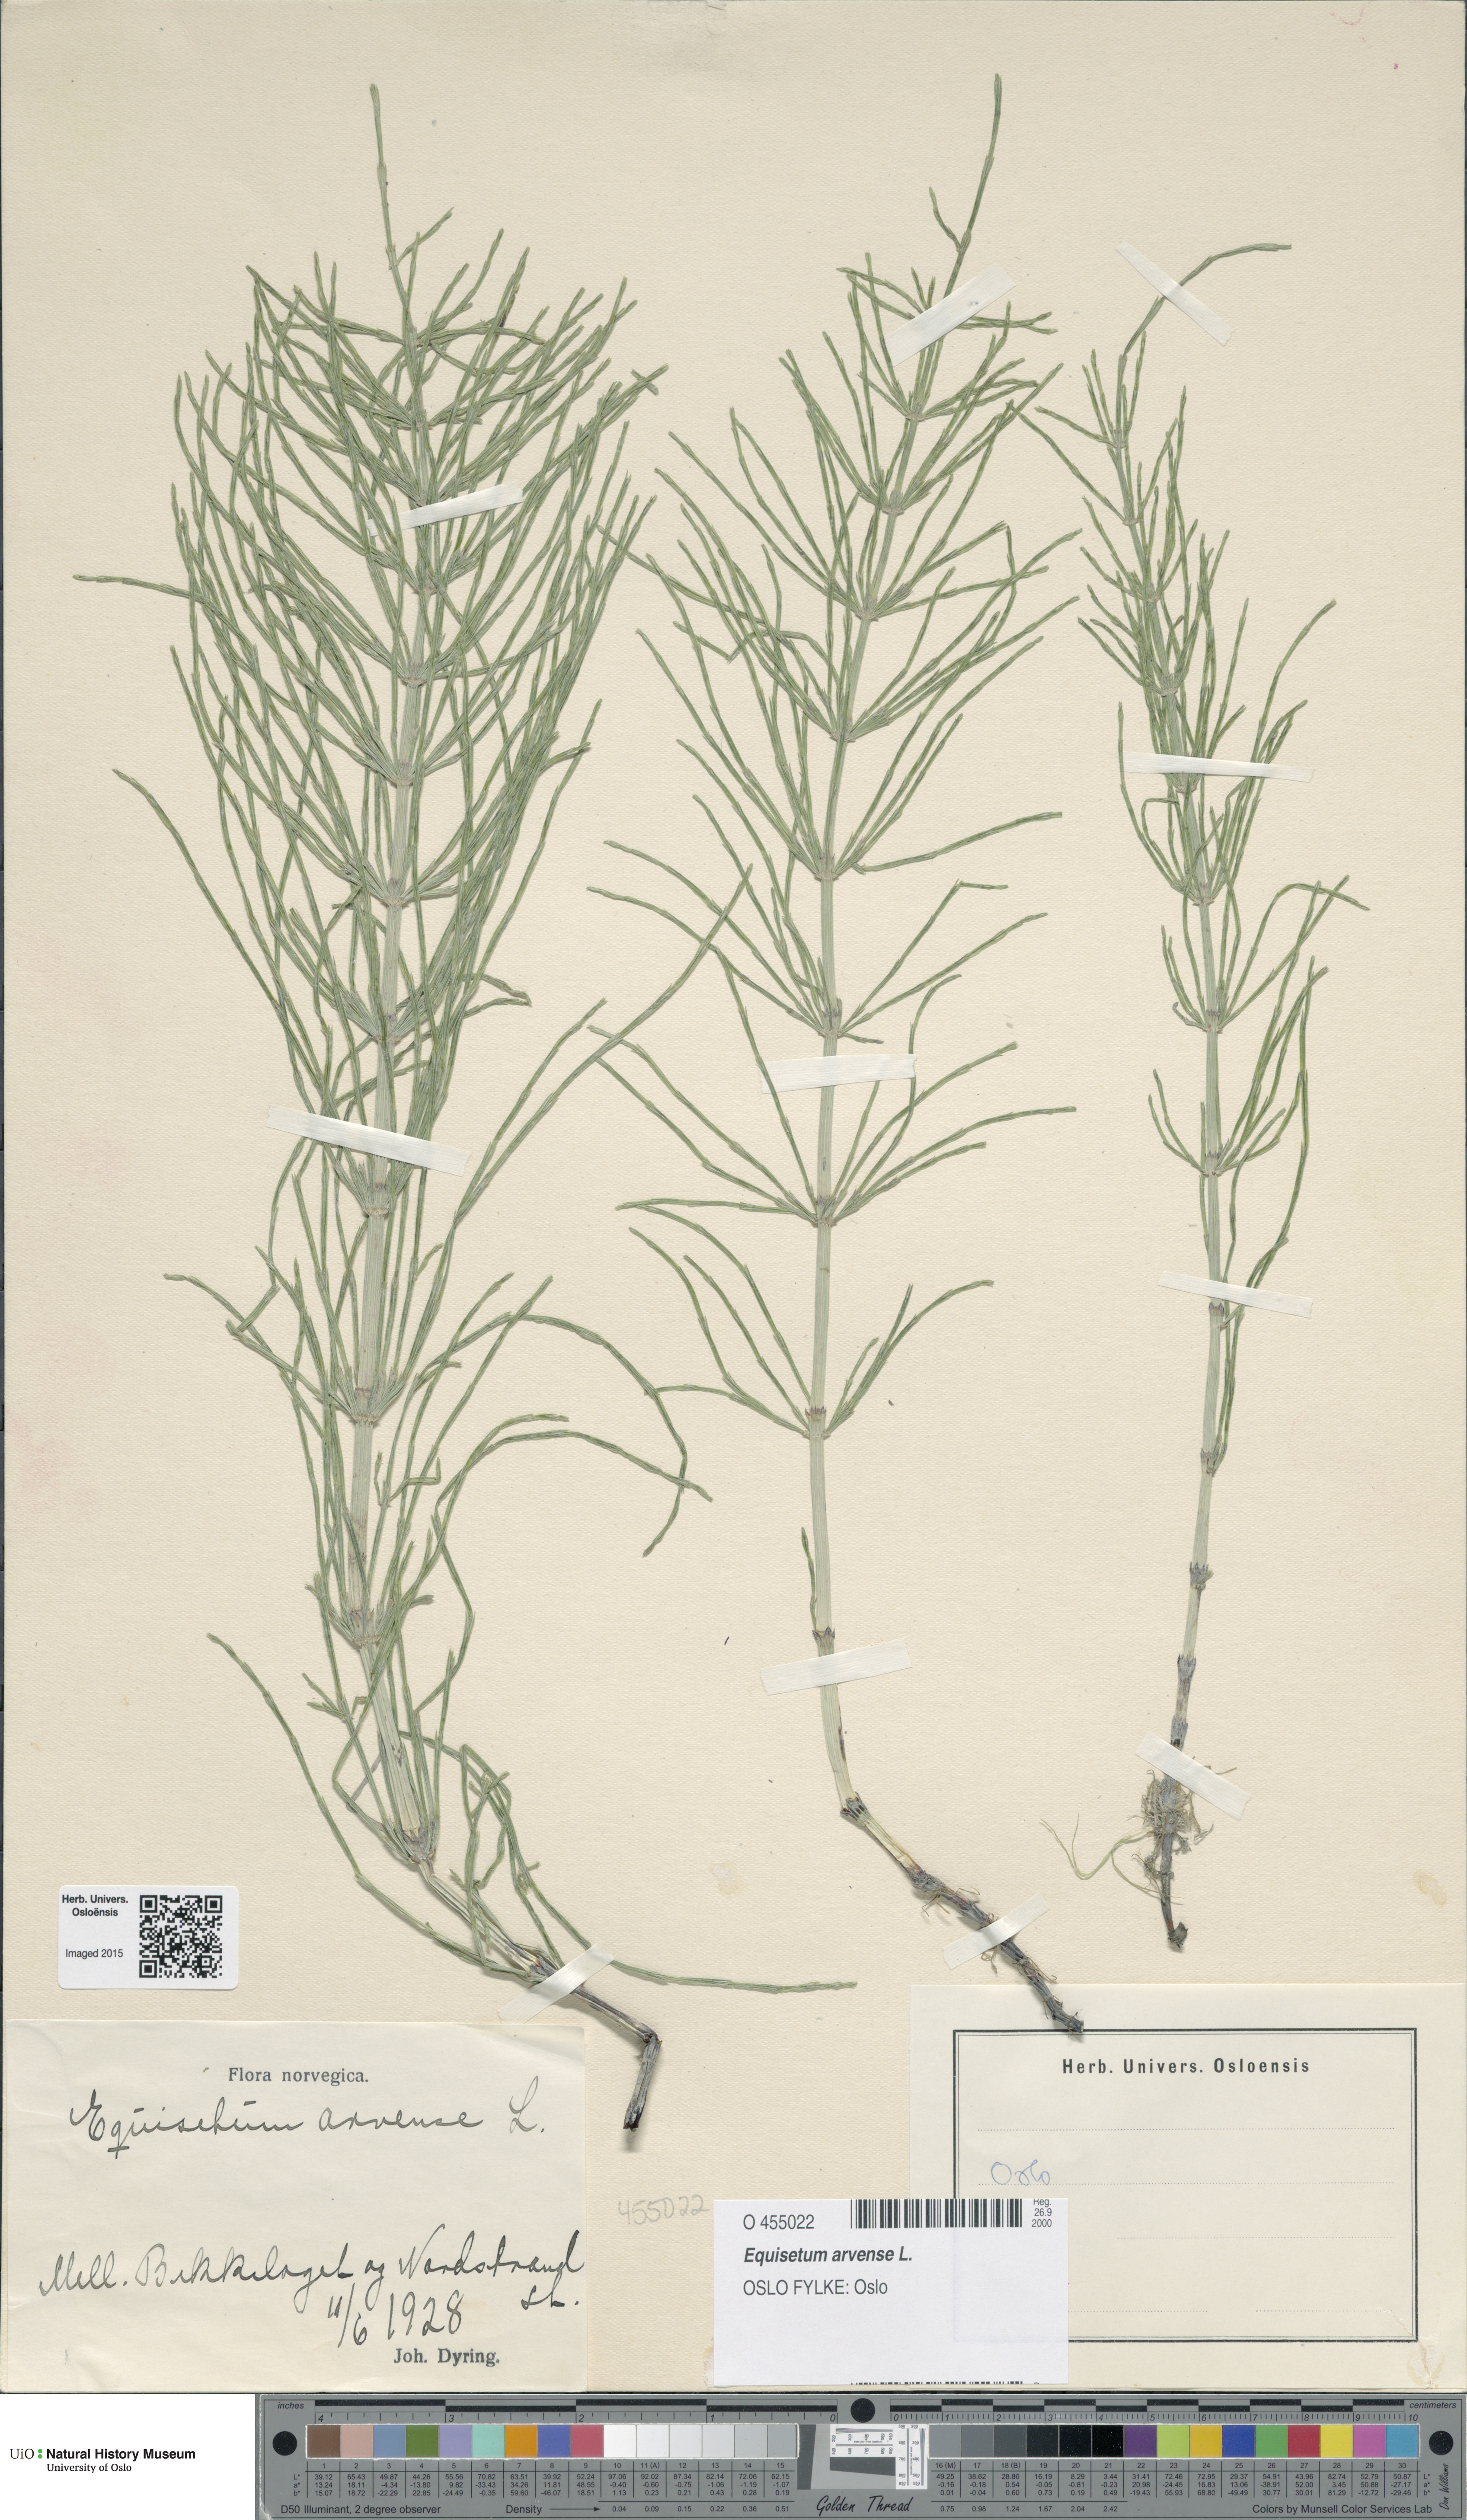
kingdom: Plantae
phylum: Tracheophyta
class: Polypodiopsida
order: Equisetales
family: Equisetaceae
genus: Equisetum
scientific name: Equisetum arvense
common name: Field horsetail
